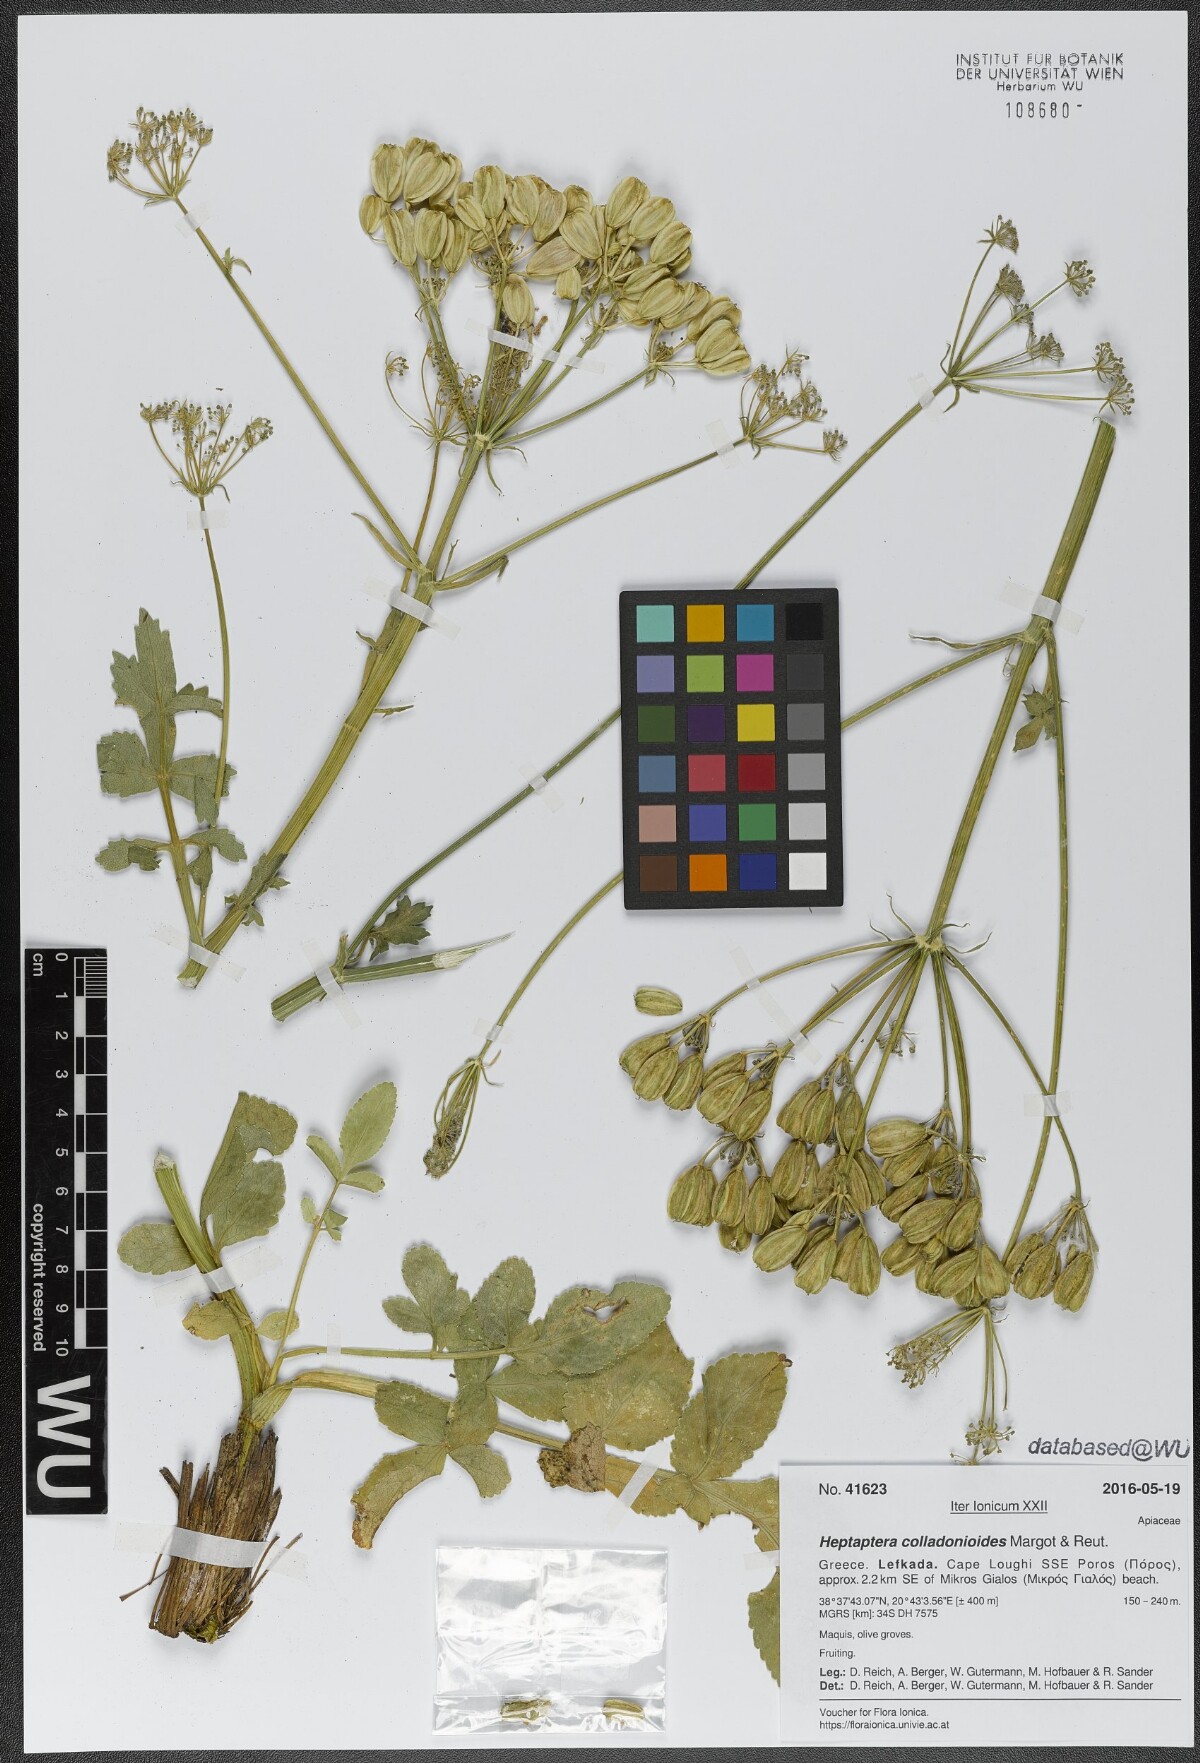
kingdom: Plantae
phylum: Tracheophyta
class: Magnoliopsida
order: Apiales
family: Apiaceae
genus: Heptaptera
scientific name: Heptaptera colladonioides
